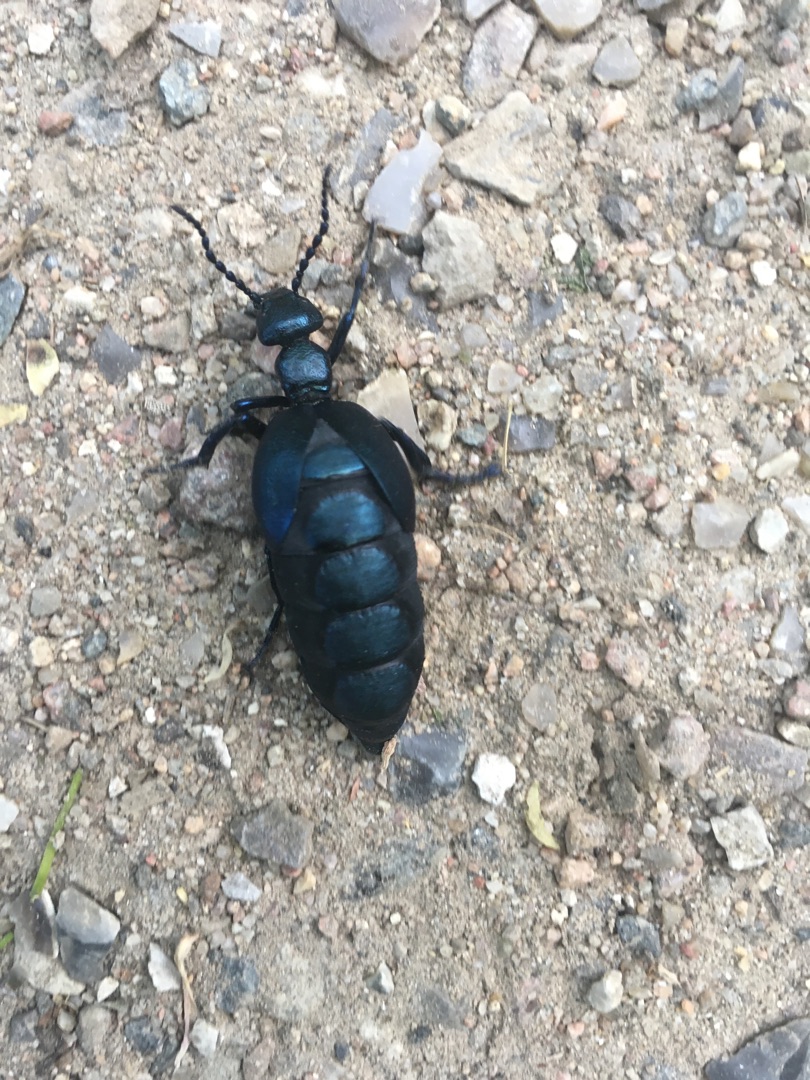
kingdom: Animalia
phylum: Arthropoda
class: Insecta
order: Coleoptera
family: Meloidae
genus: Meloe
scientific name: Meloe violaceus
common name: Blå oliebille
